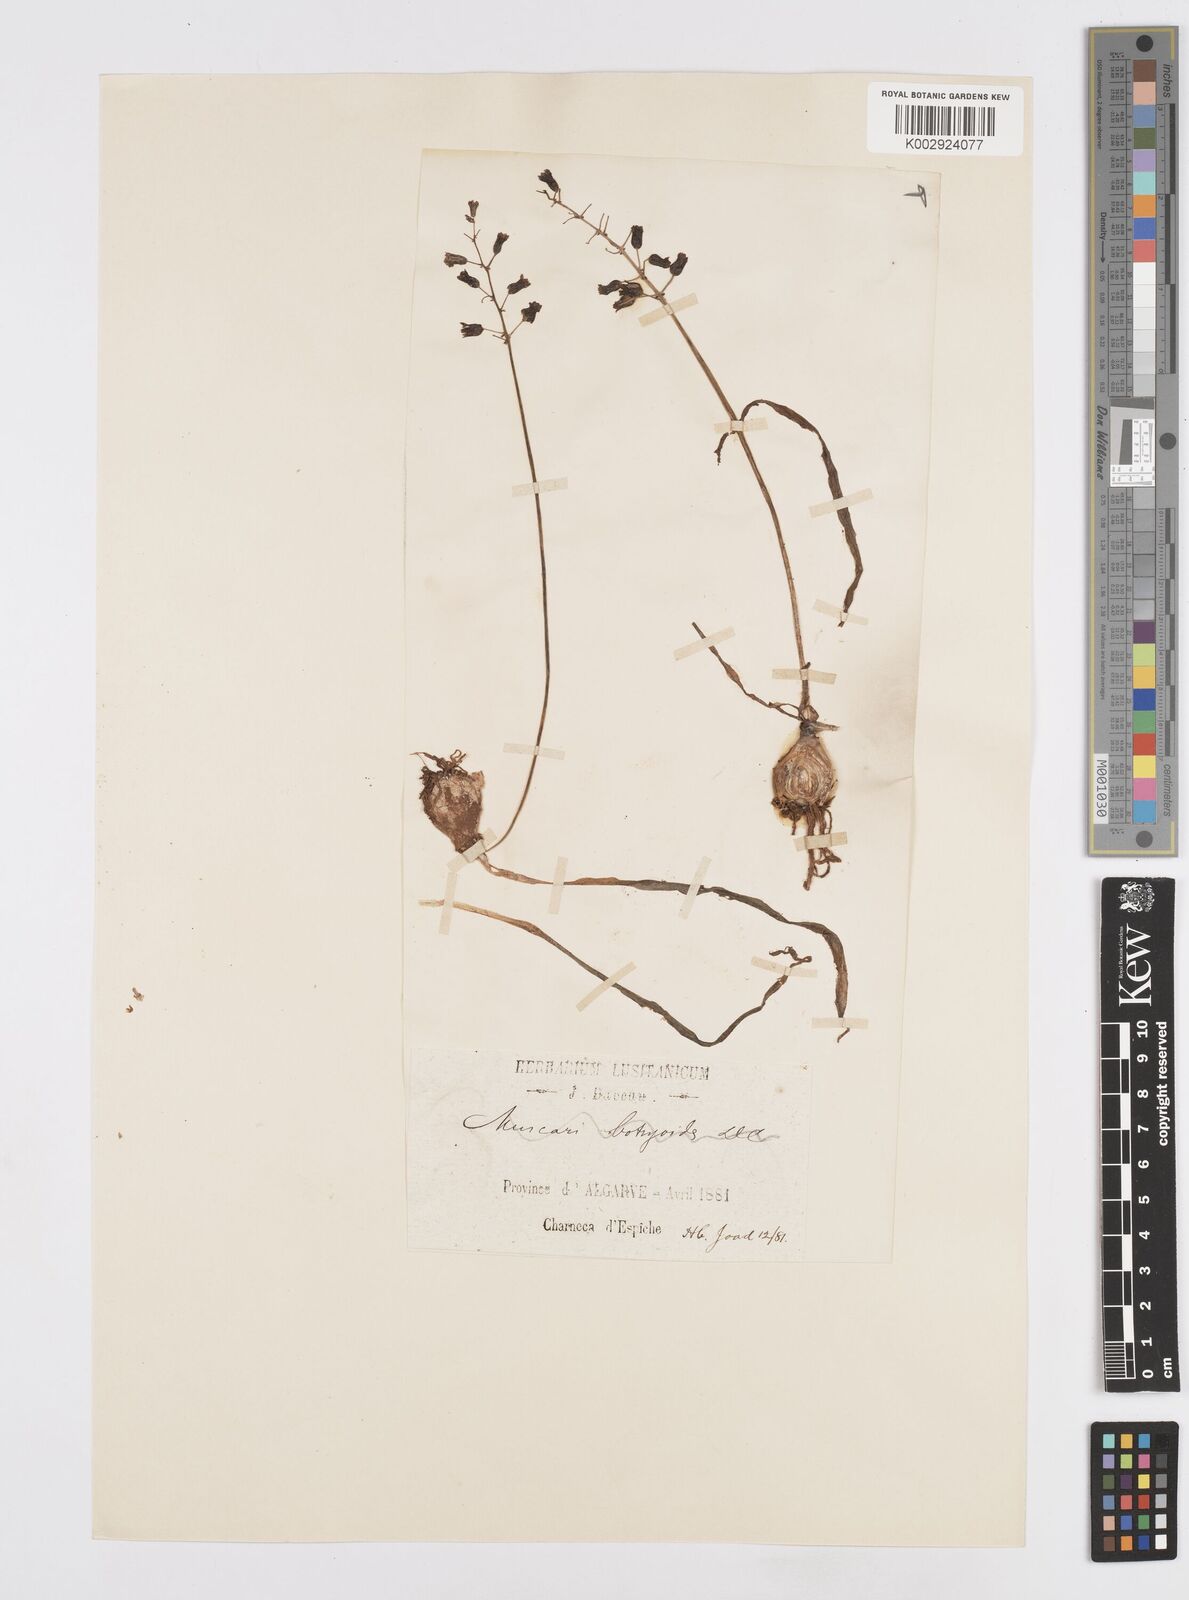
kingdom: Plantae
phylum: Tracheophyta
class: Liliopsida
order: Asparagales
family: Asparagaceae
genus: Bellevalia
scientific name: Bellevalia dubia
